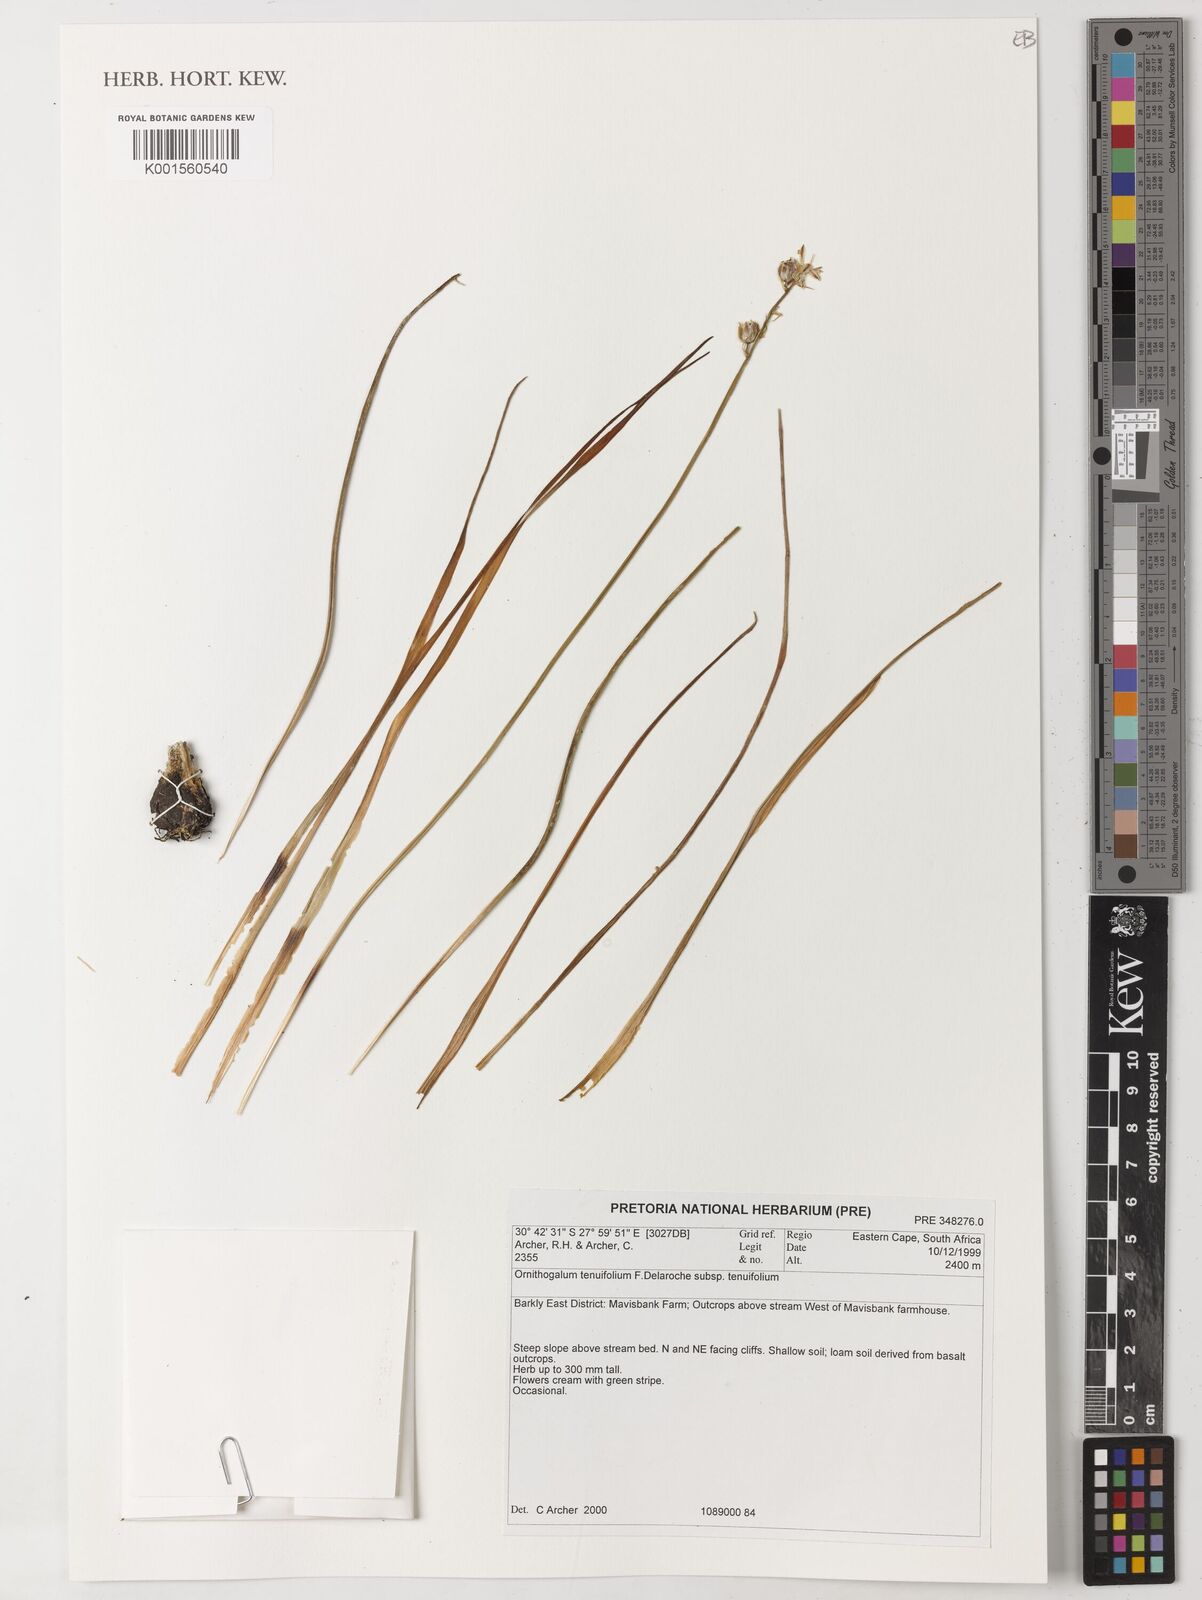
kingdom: Plantae
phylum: Tracheophyta
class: Liliopsida
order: Asparagales
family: Asparagaceae
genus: Albuca
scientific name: Albuca virens
